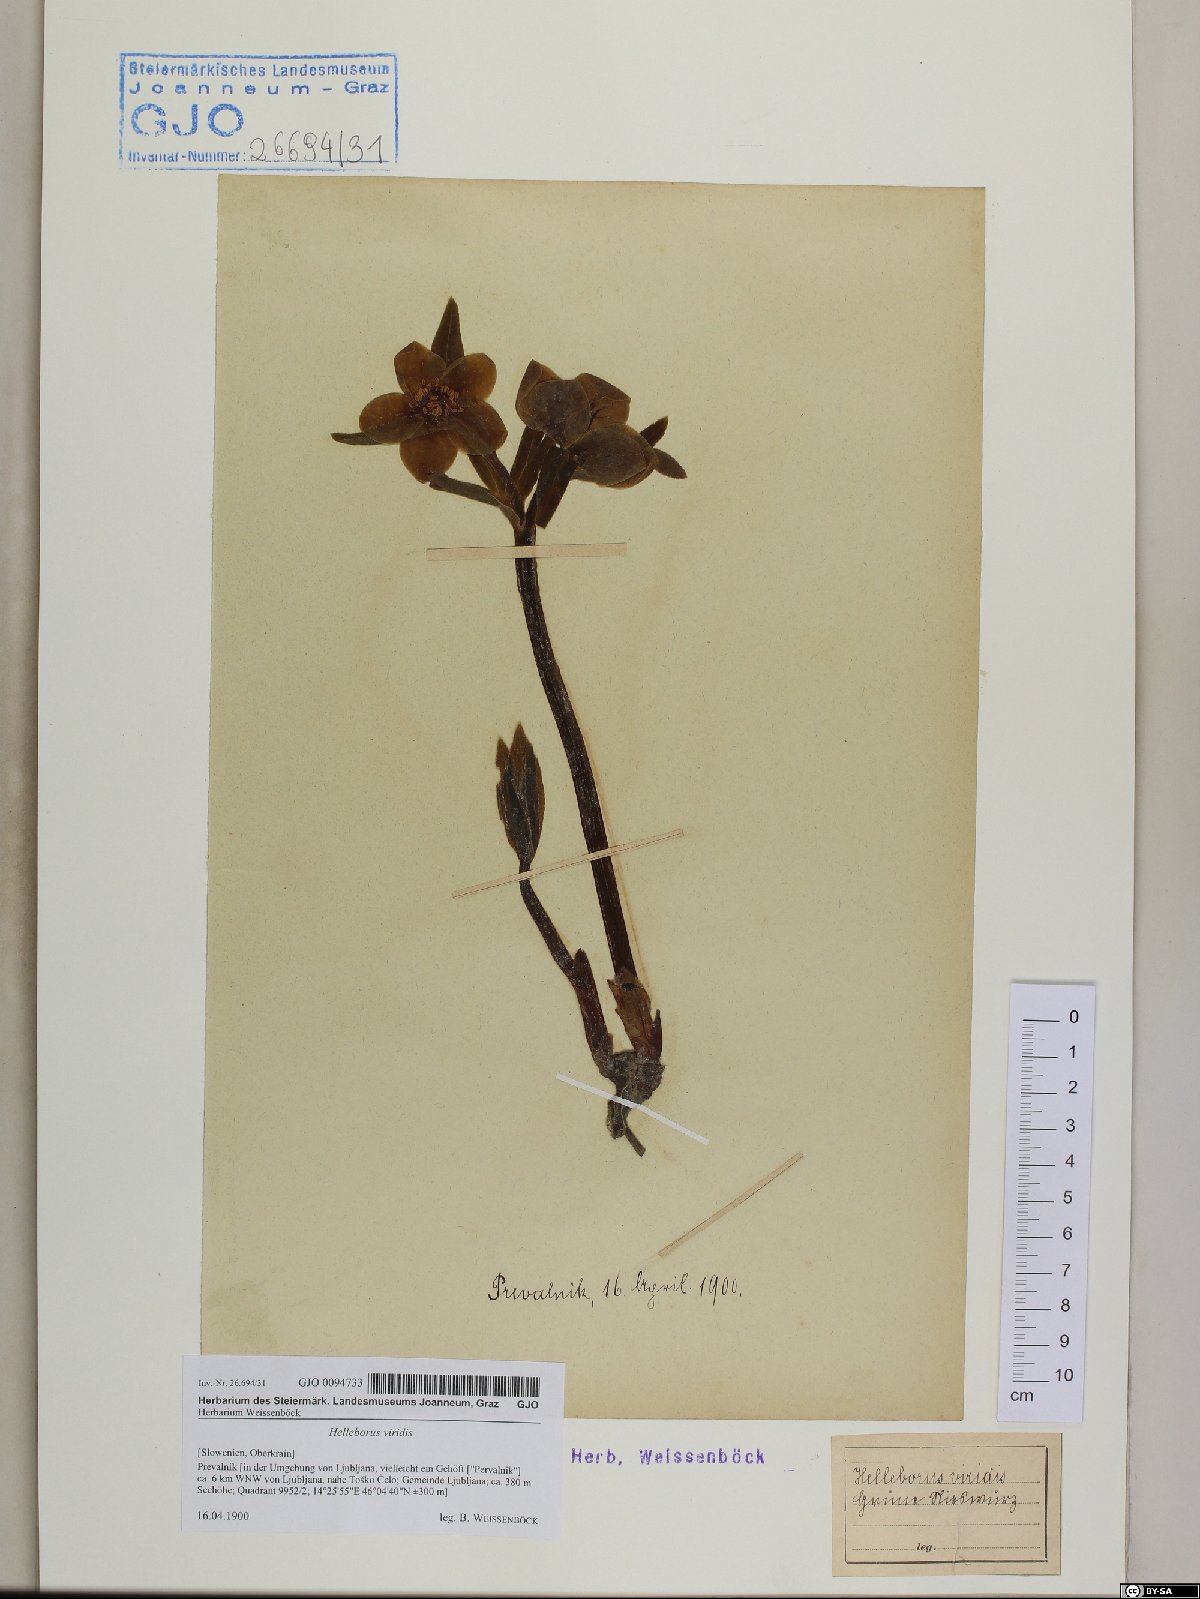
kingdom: Plantae
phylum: Tracheophyta
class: Magnoliopsida
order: Ranunculales
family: Ranunculaceae
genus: Helleborus
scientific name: Helleborus viridis
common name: Green hellebore
